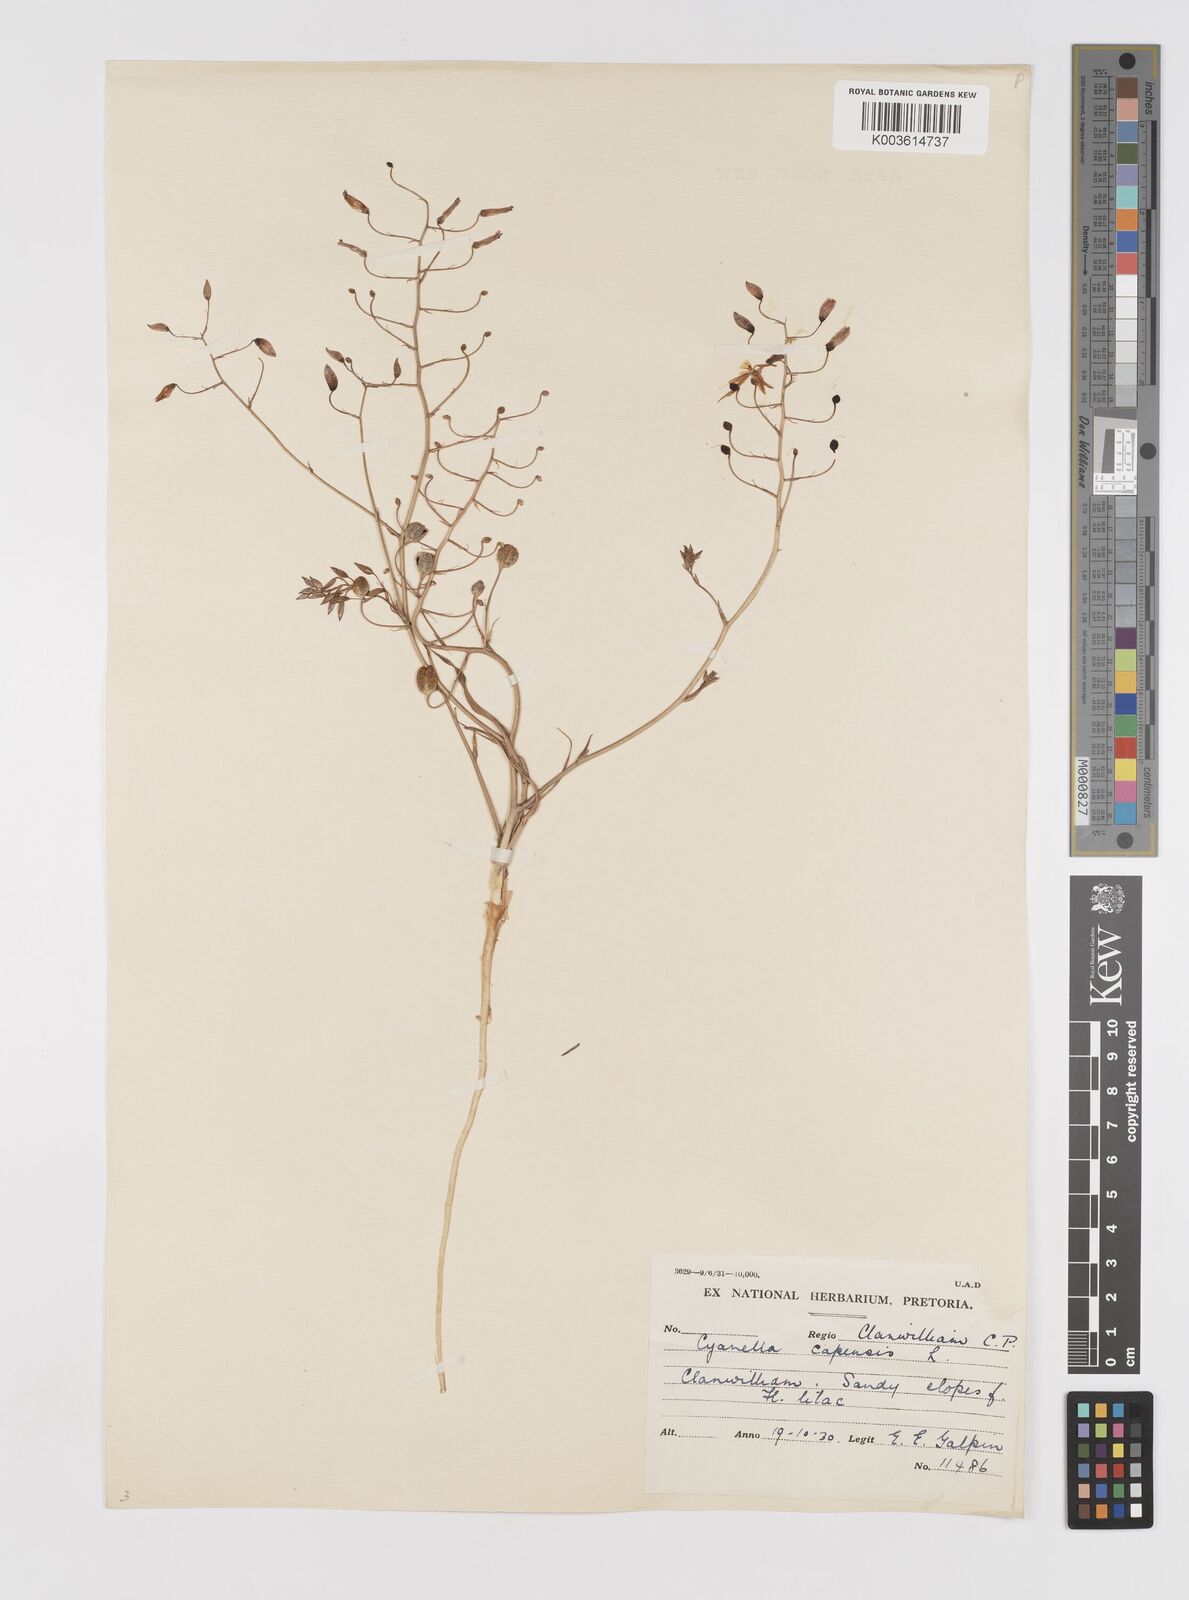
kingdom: Plantae
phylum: Tracheophyta
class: Liliopsida
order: Asparagales
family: Tecophilaeaceae
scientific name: Tecophilaeaceae
